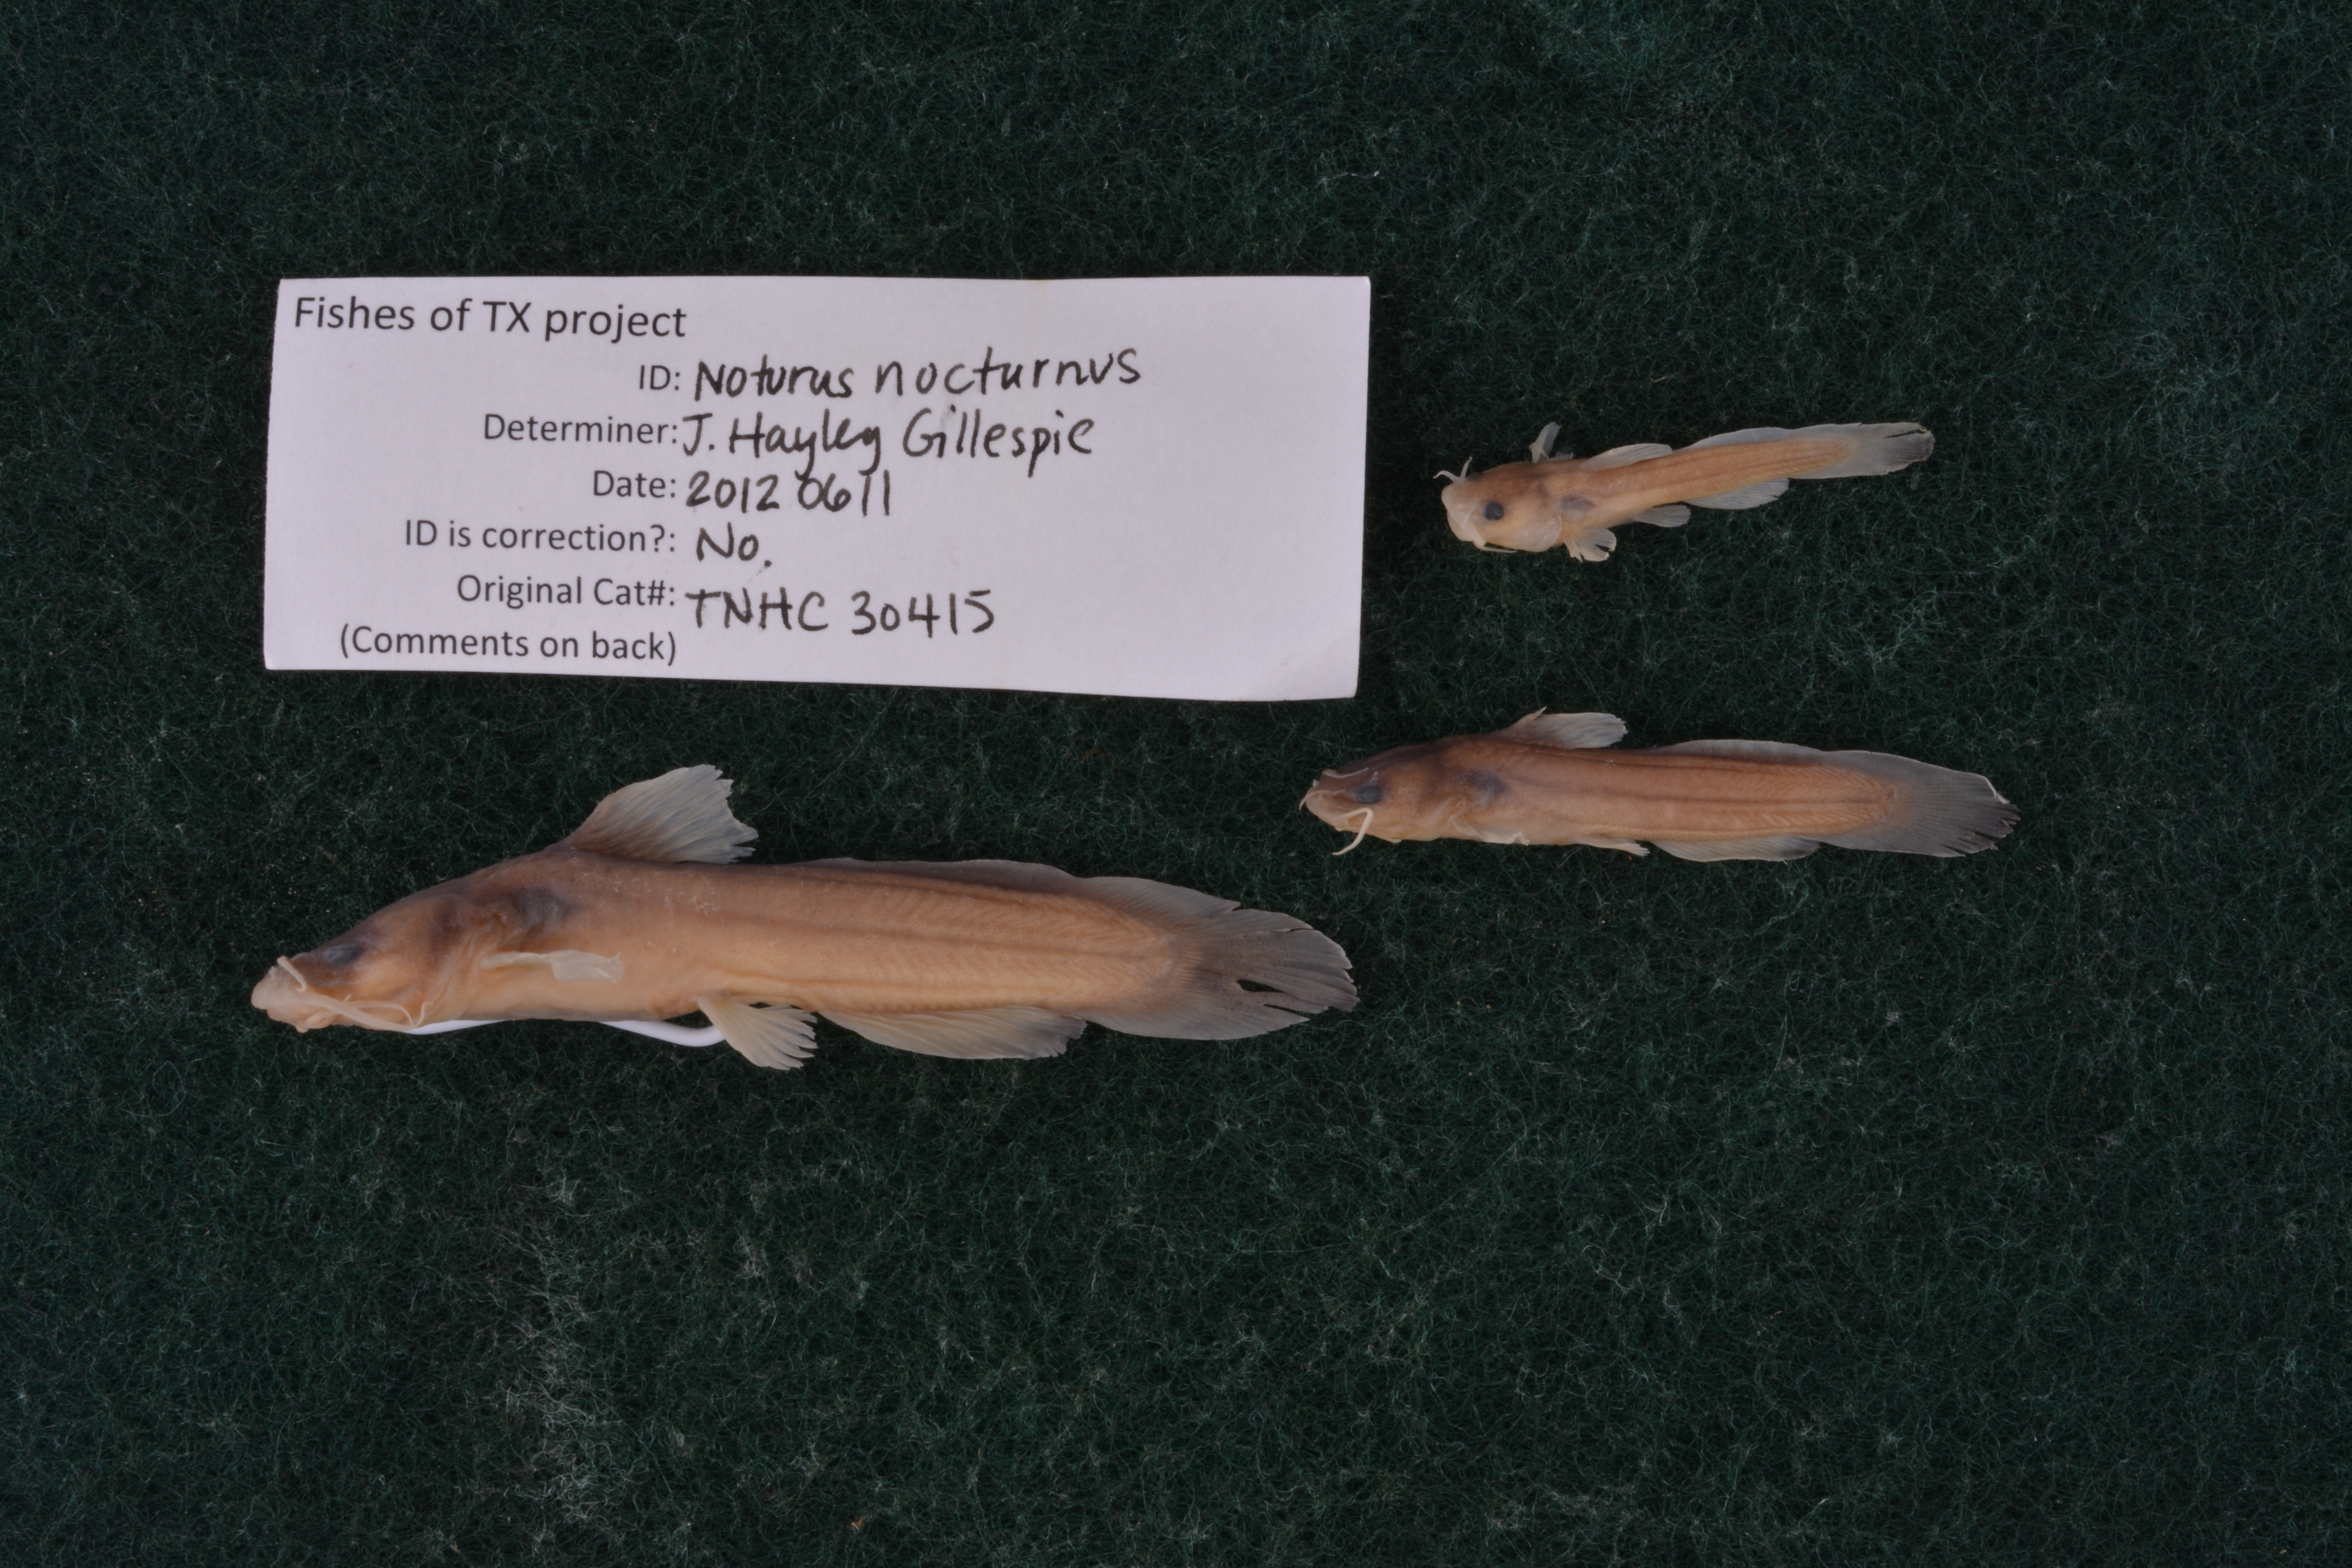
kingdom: Animalia
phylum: Chordata
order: Siluriformes
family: Ictaluridae
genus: Noturus
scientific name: Noturus nocturnus
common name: Freckled madtom
